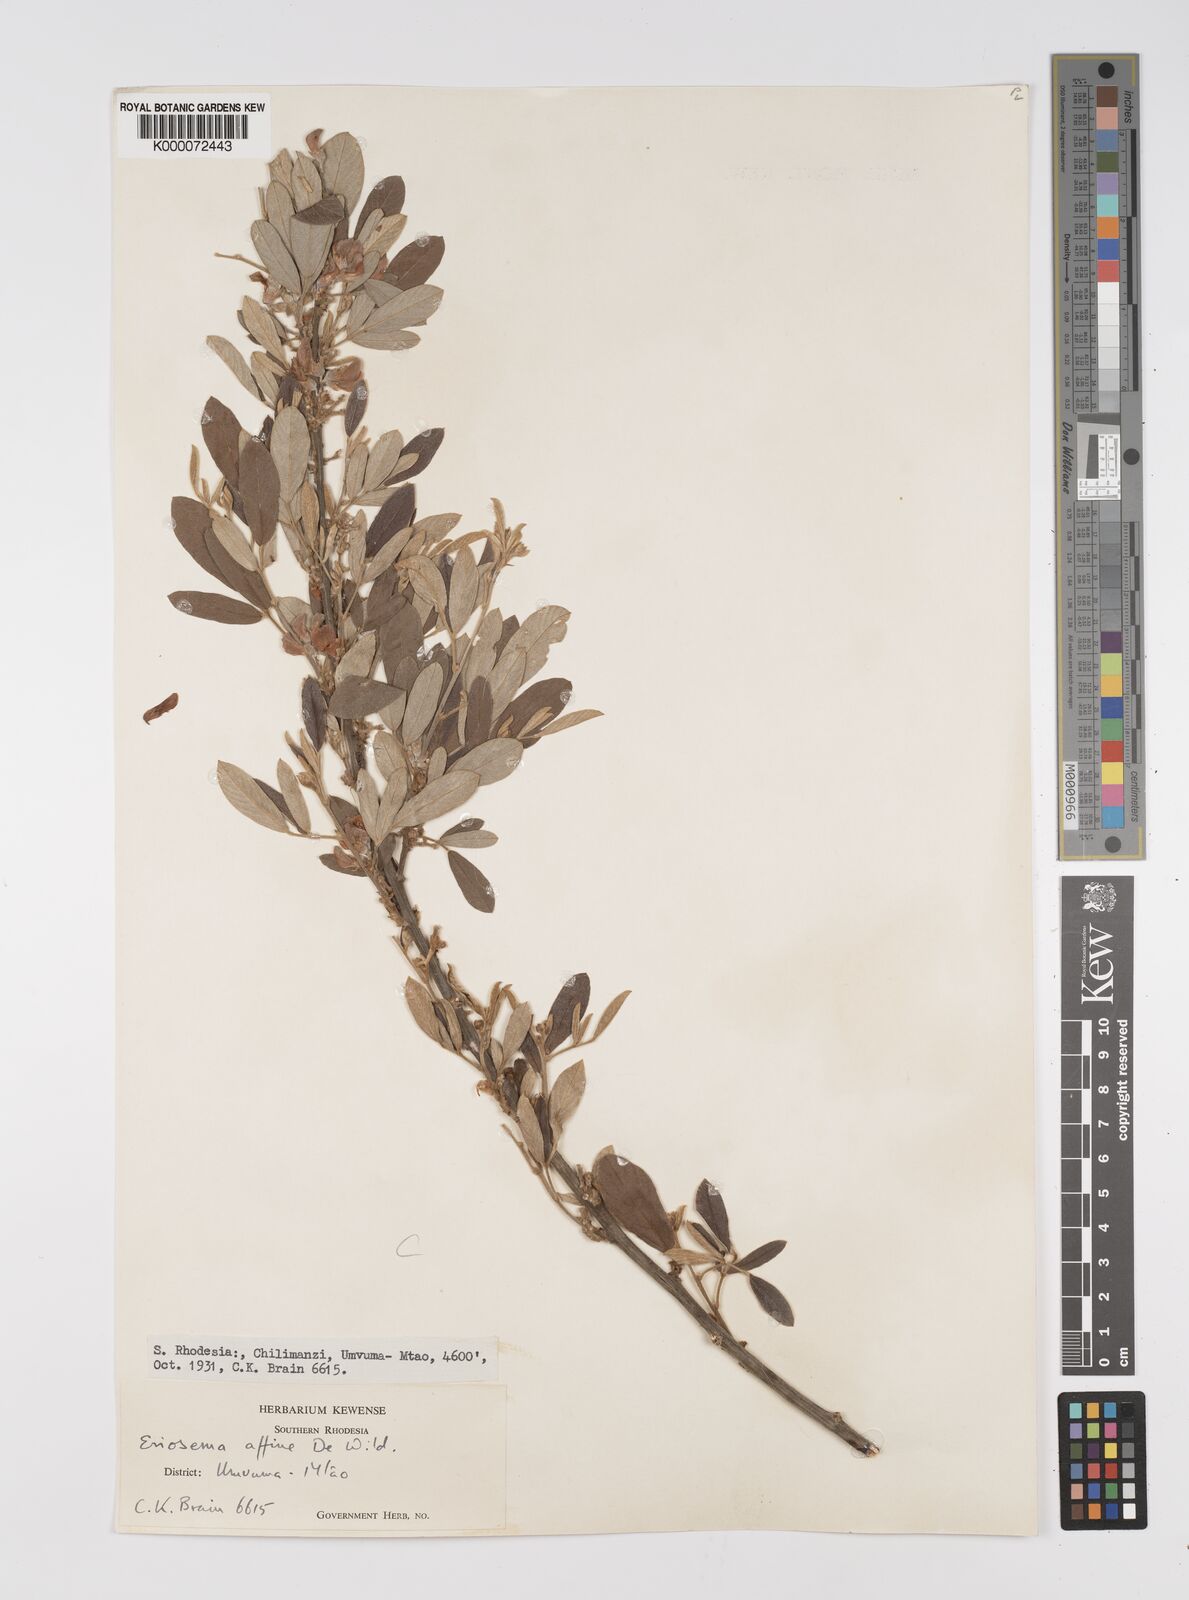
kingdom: Plantae
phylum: Tracheophyta
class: Magnoliopsida
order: Fabales
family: Fabaceae
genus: Eriosema
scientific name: Eriosema affine
